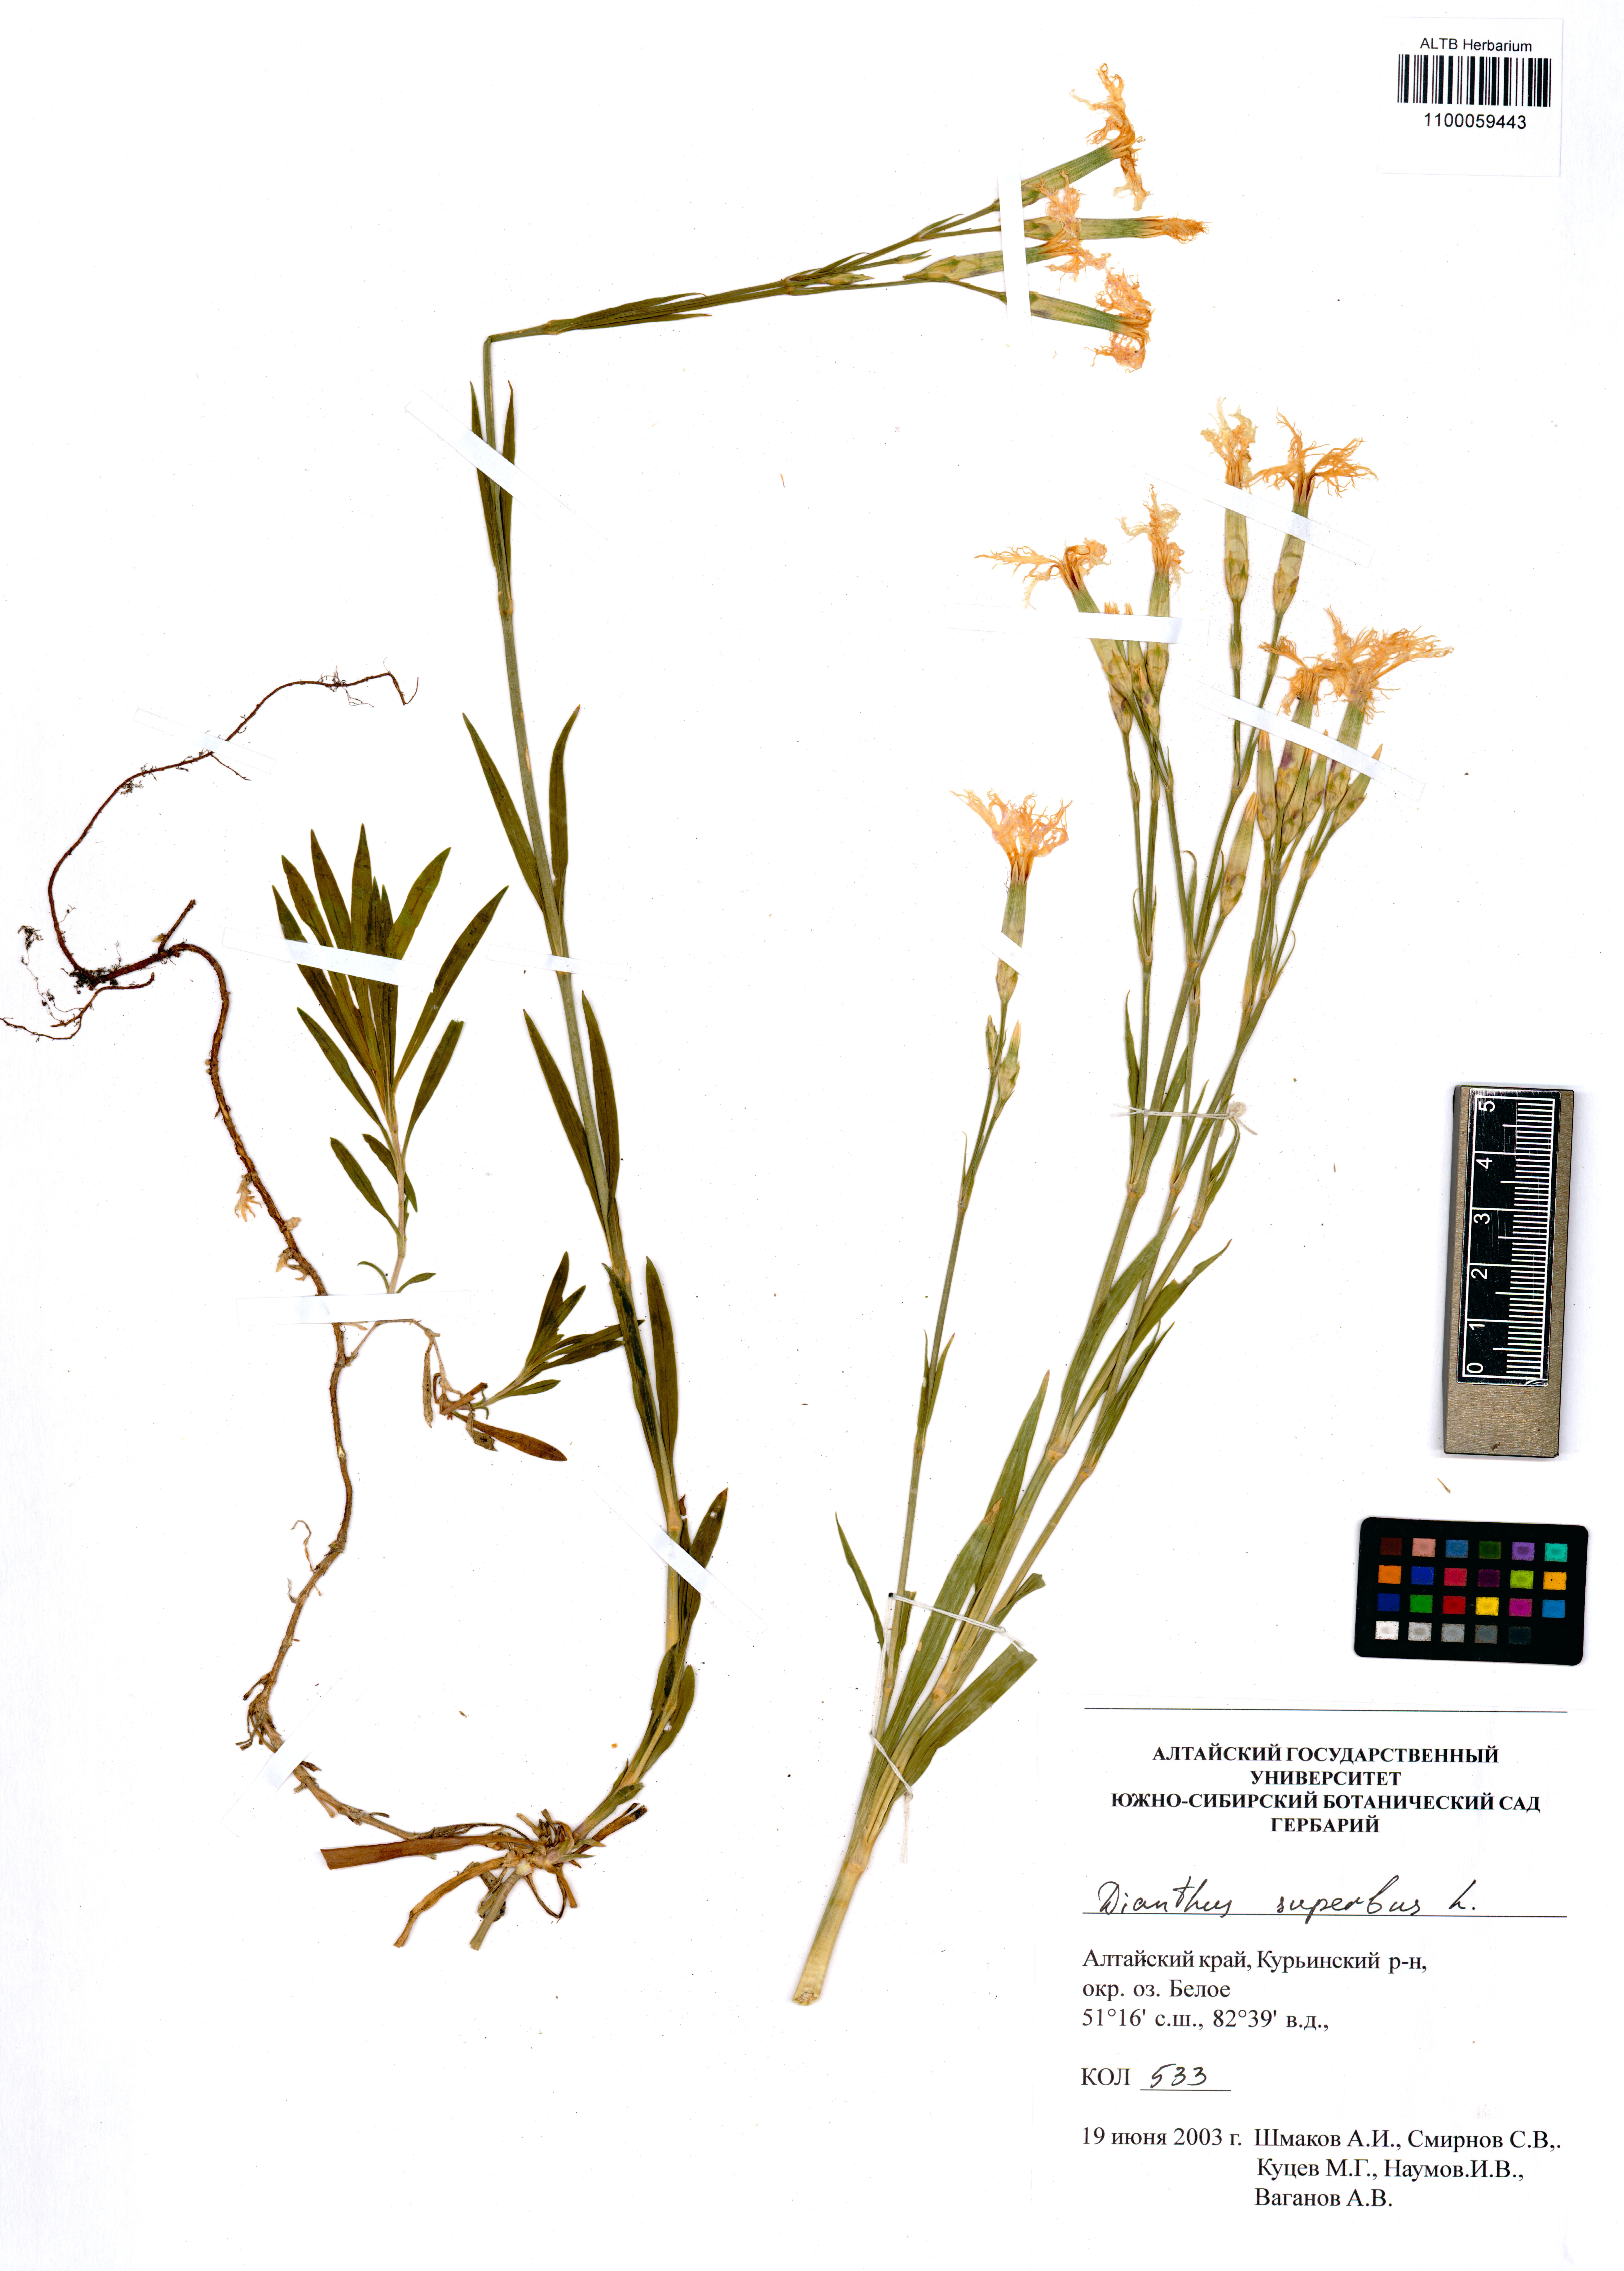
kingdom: Plantae
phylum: Tracheophyta
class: Magnoliopsida
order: Caryophyllales
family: Caryophyllaceae
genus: Dianthus
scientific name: Dianthus superbus
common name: Fringed pink
